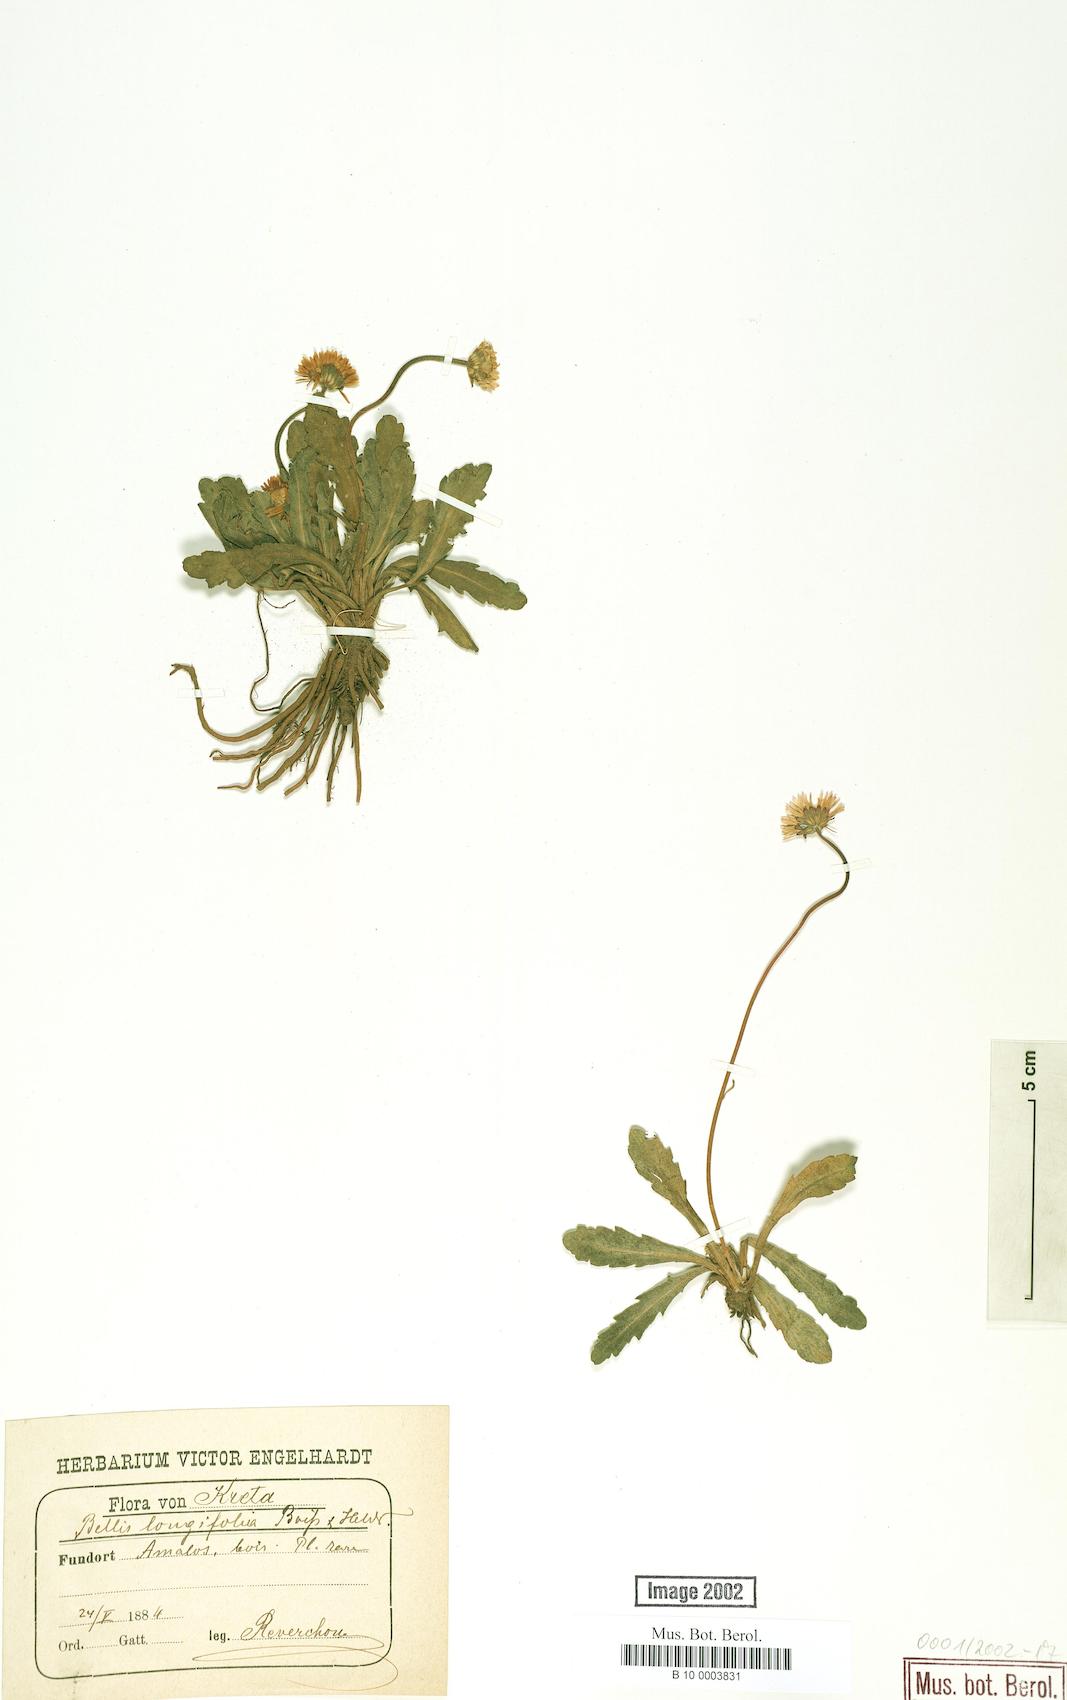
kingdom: Plantae
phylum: Tracheophyta
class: Magnoliopsida
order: Asterales
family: Asteraceae
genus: Bellis
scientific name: Bellis longifolia
